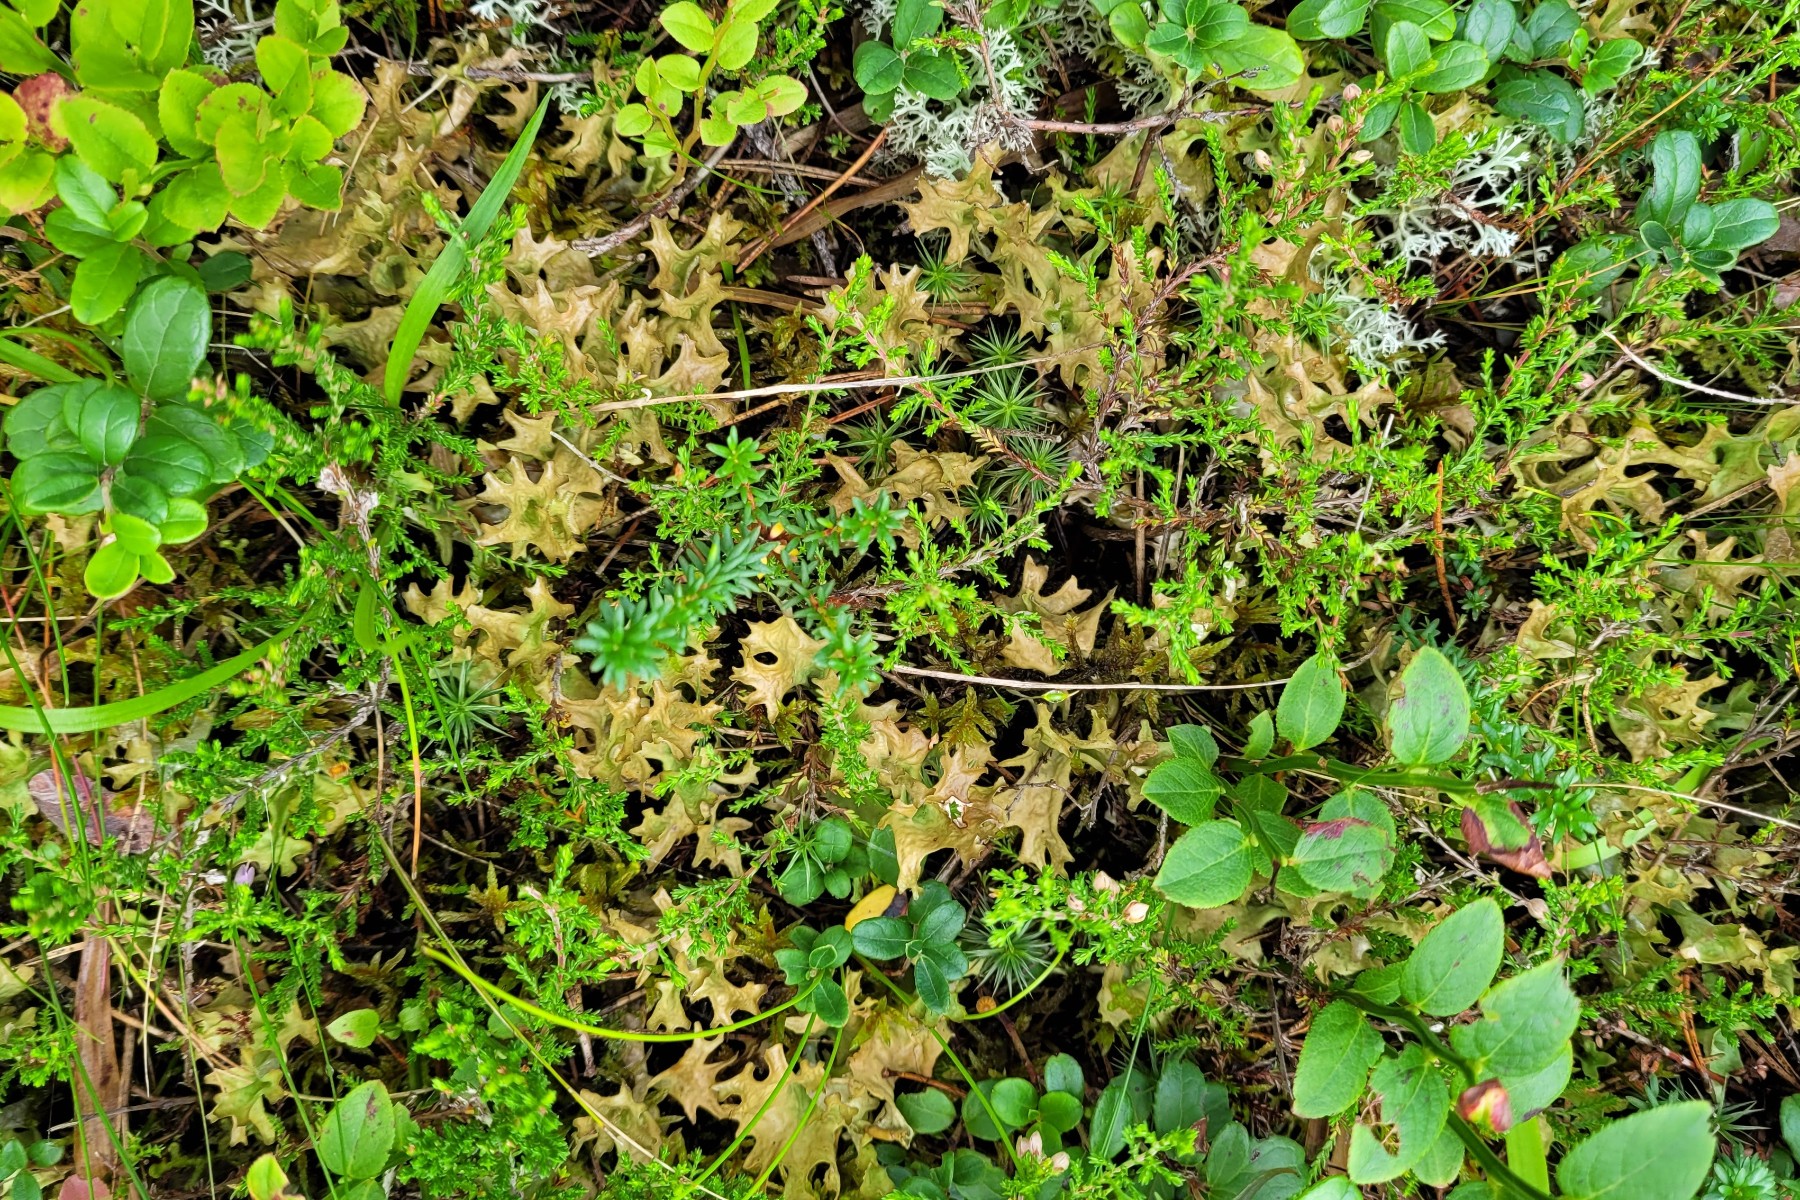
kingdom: Fungi
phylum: Ascomycota
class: Lecanoromycetes
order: Lecanorales
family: Parmeliaceae
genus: Cetraria
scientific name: Cetraria islandica
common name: islandsk kruslav
